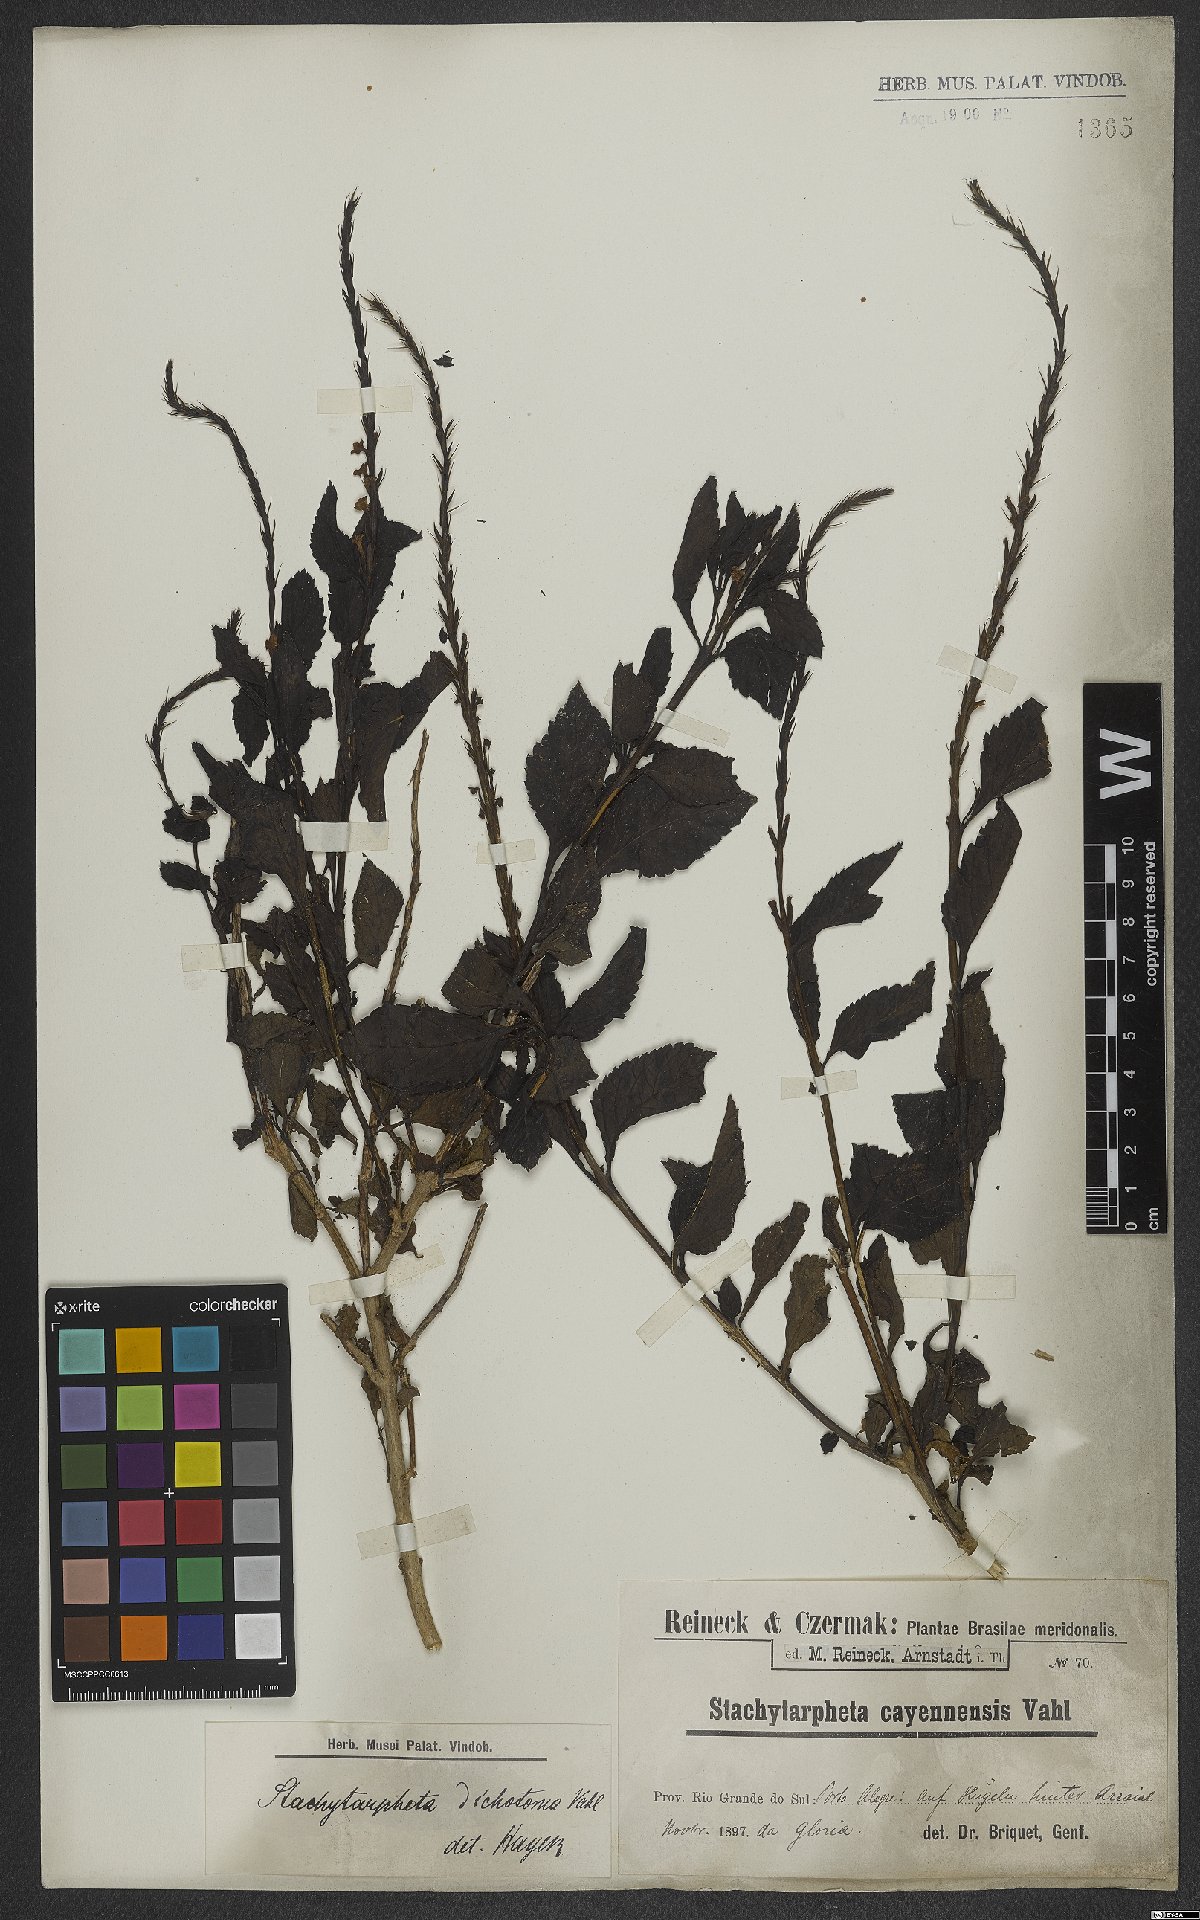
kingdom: Plantae
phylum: Tracheophyta
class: Magnoliopsida
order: Lamiales
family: Verbenaceae
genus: Stachytarpheta
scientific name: Stachytarpheta cayennensis
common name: Cayenne porterweed
